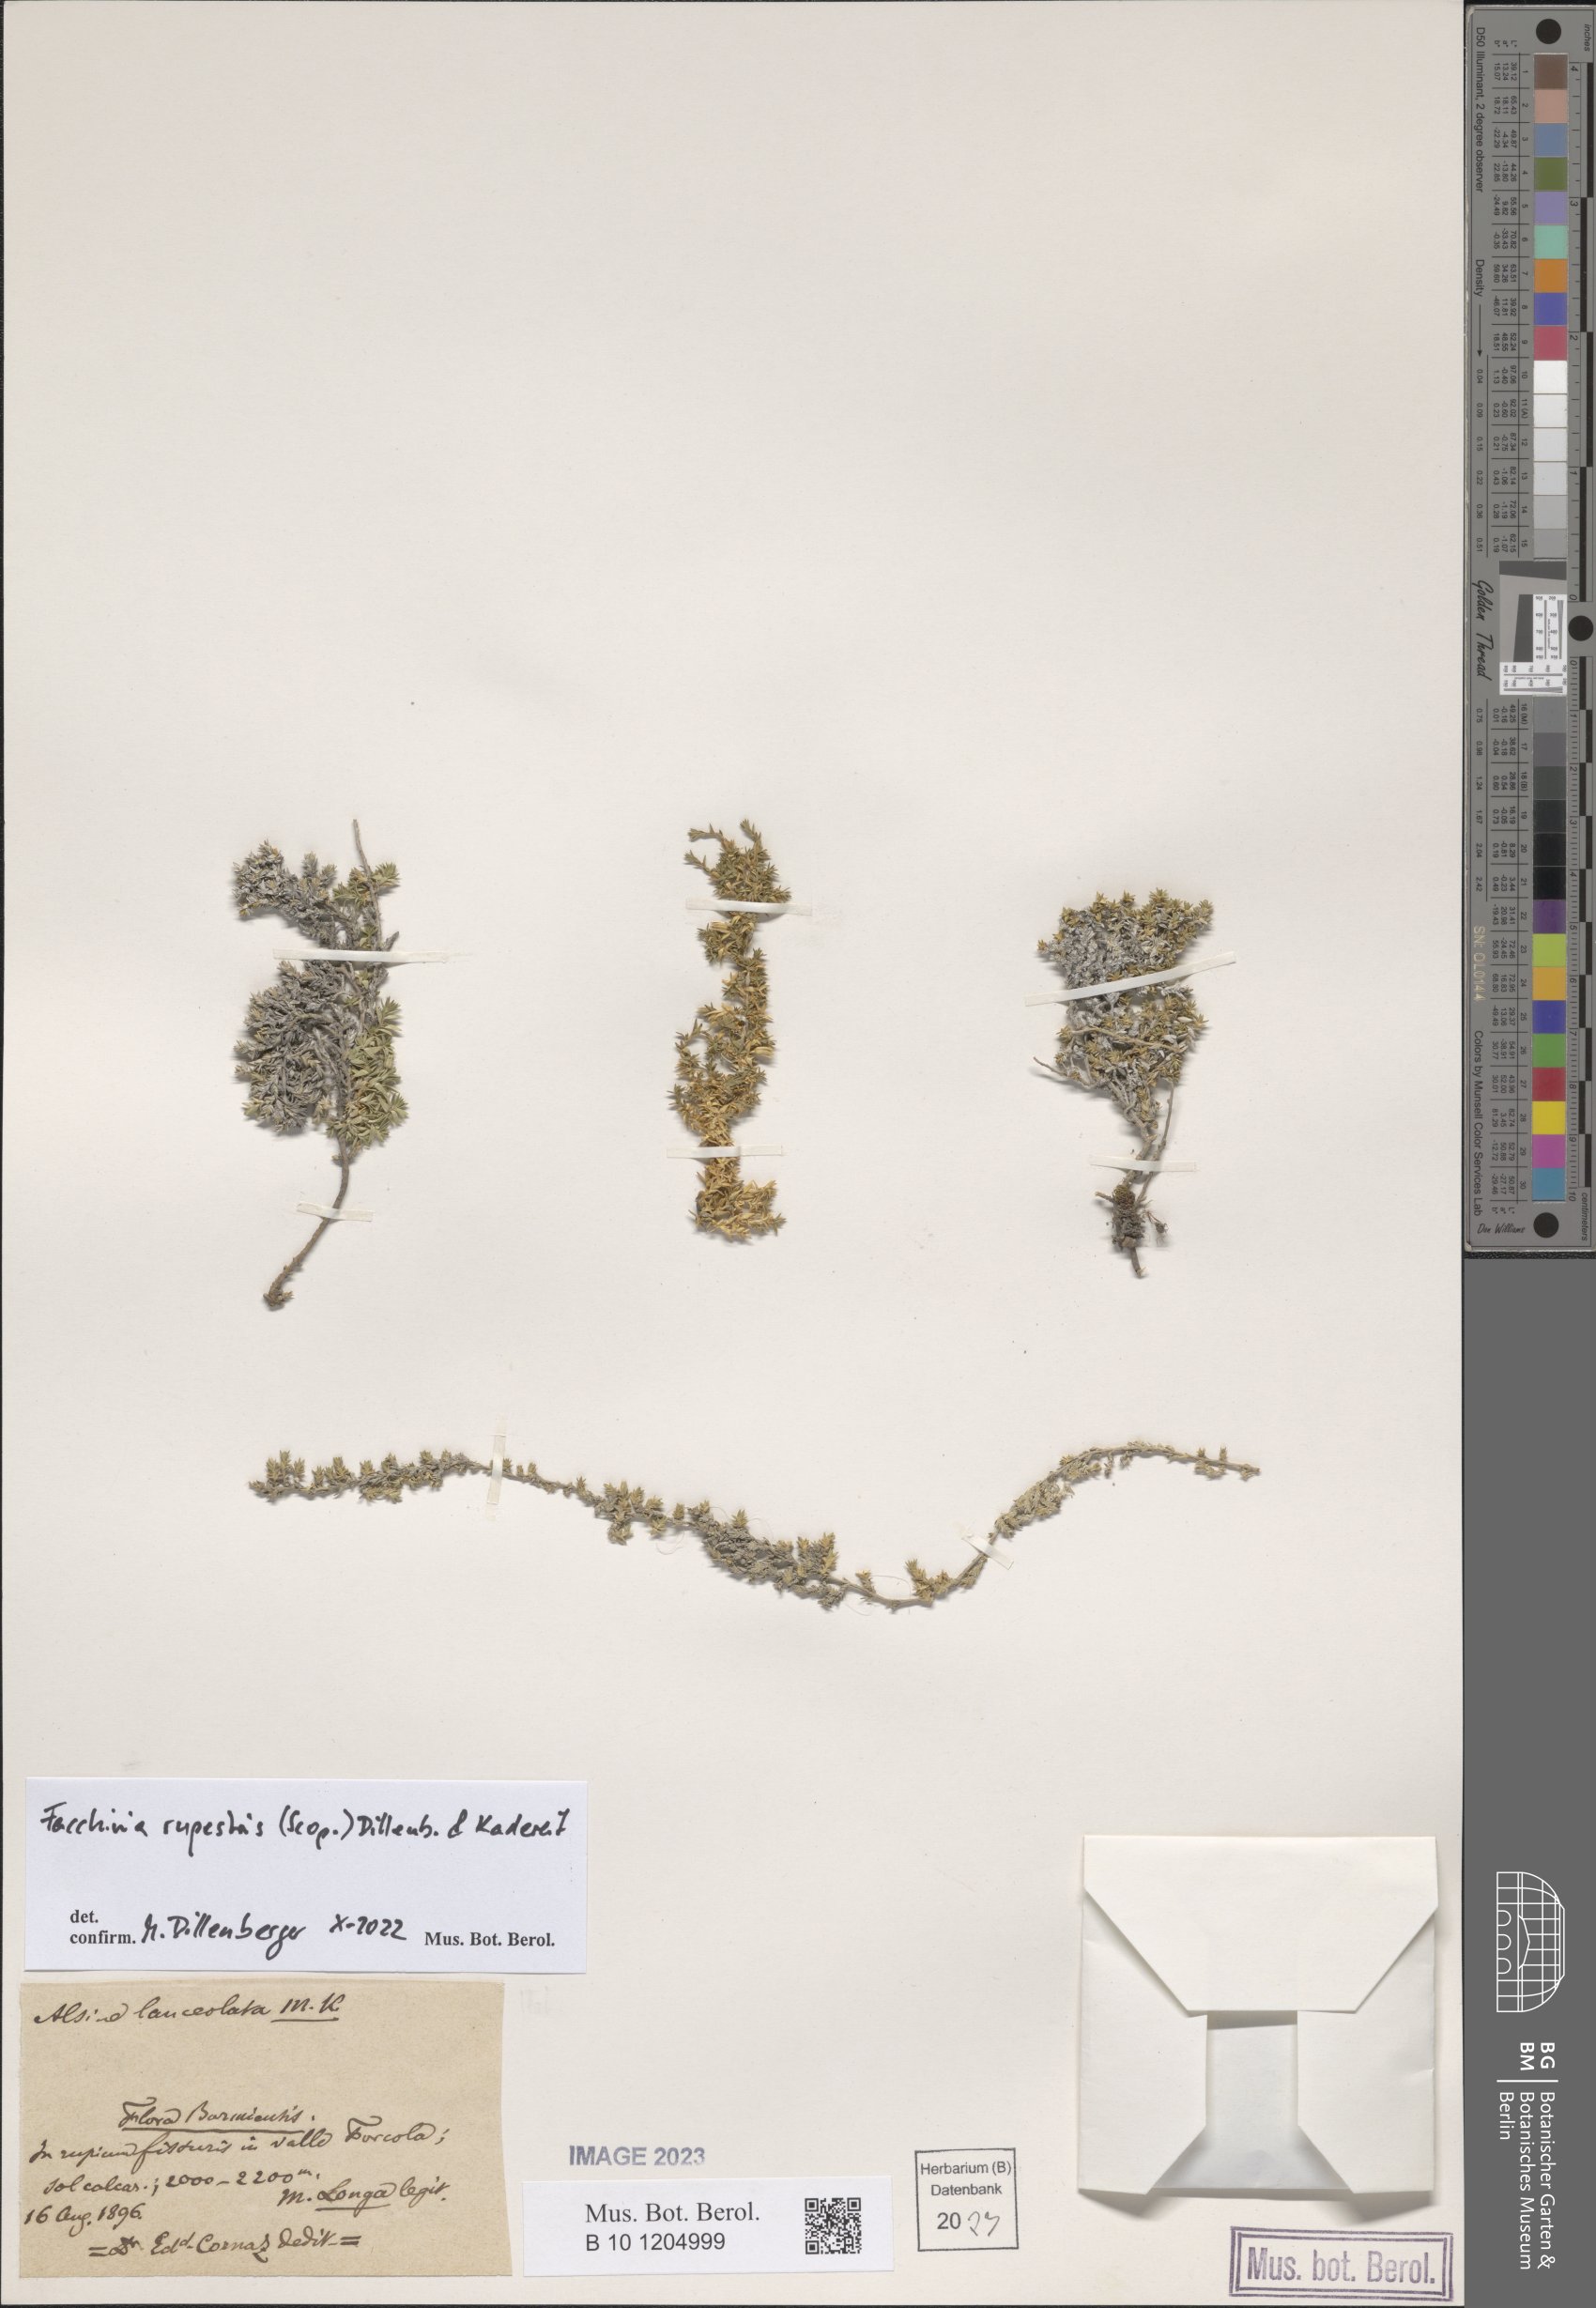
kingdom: Plantae
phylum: Tracheophyta
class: Magnoliopsida
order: Caryophyllales
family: Caryophyllaceae
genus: Facchinia
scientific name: Facchinia rupestris
